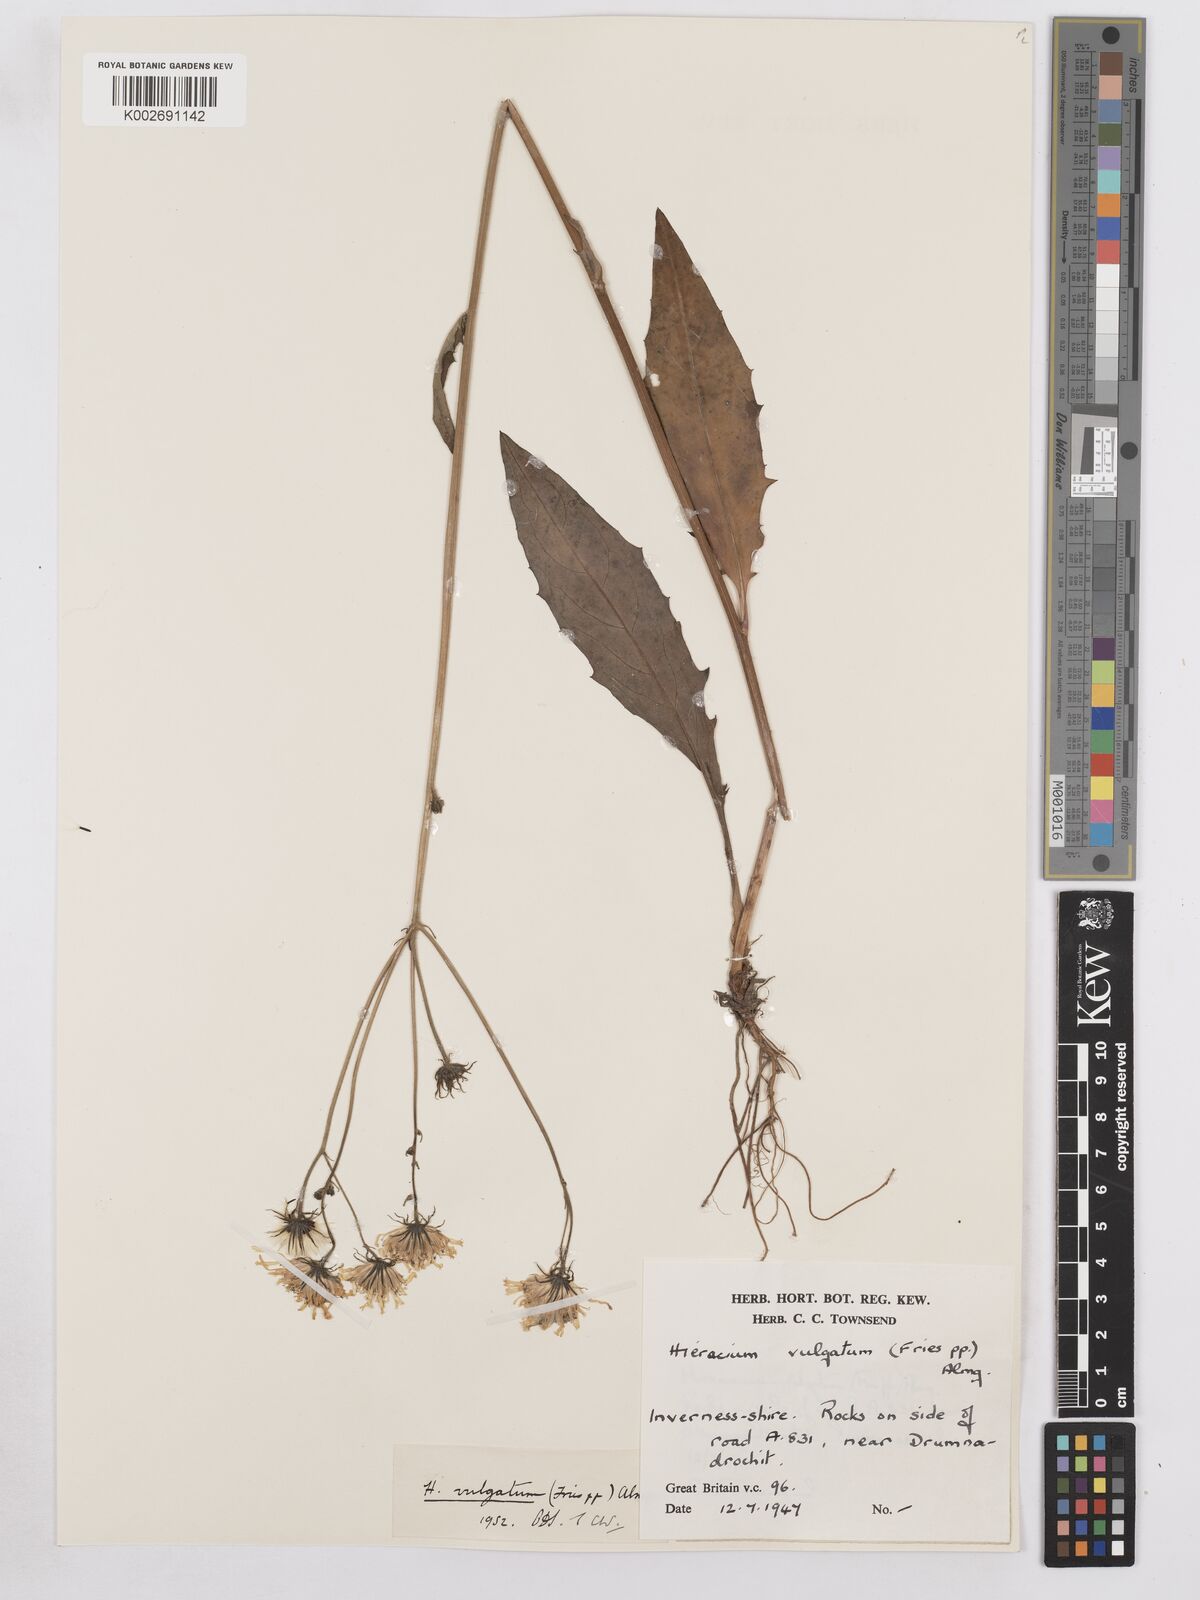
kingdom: Plantae
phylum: Tracheophyta
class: Magnoliopsida
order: Asterales
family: Asteraceae
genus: Hieracium
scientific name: Hieracium lachenalii
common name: Common hawkweed
